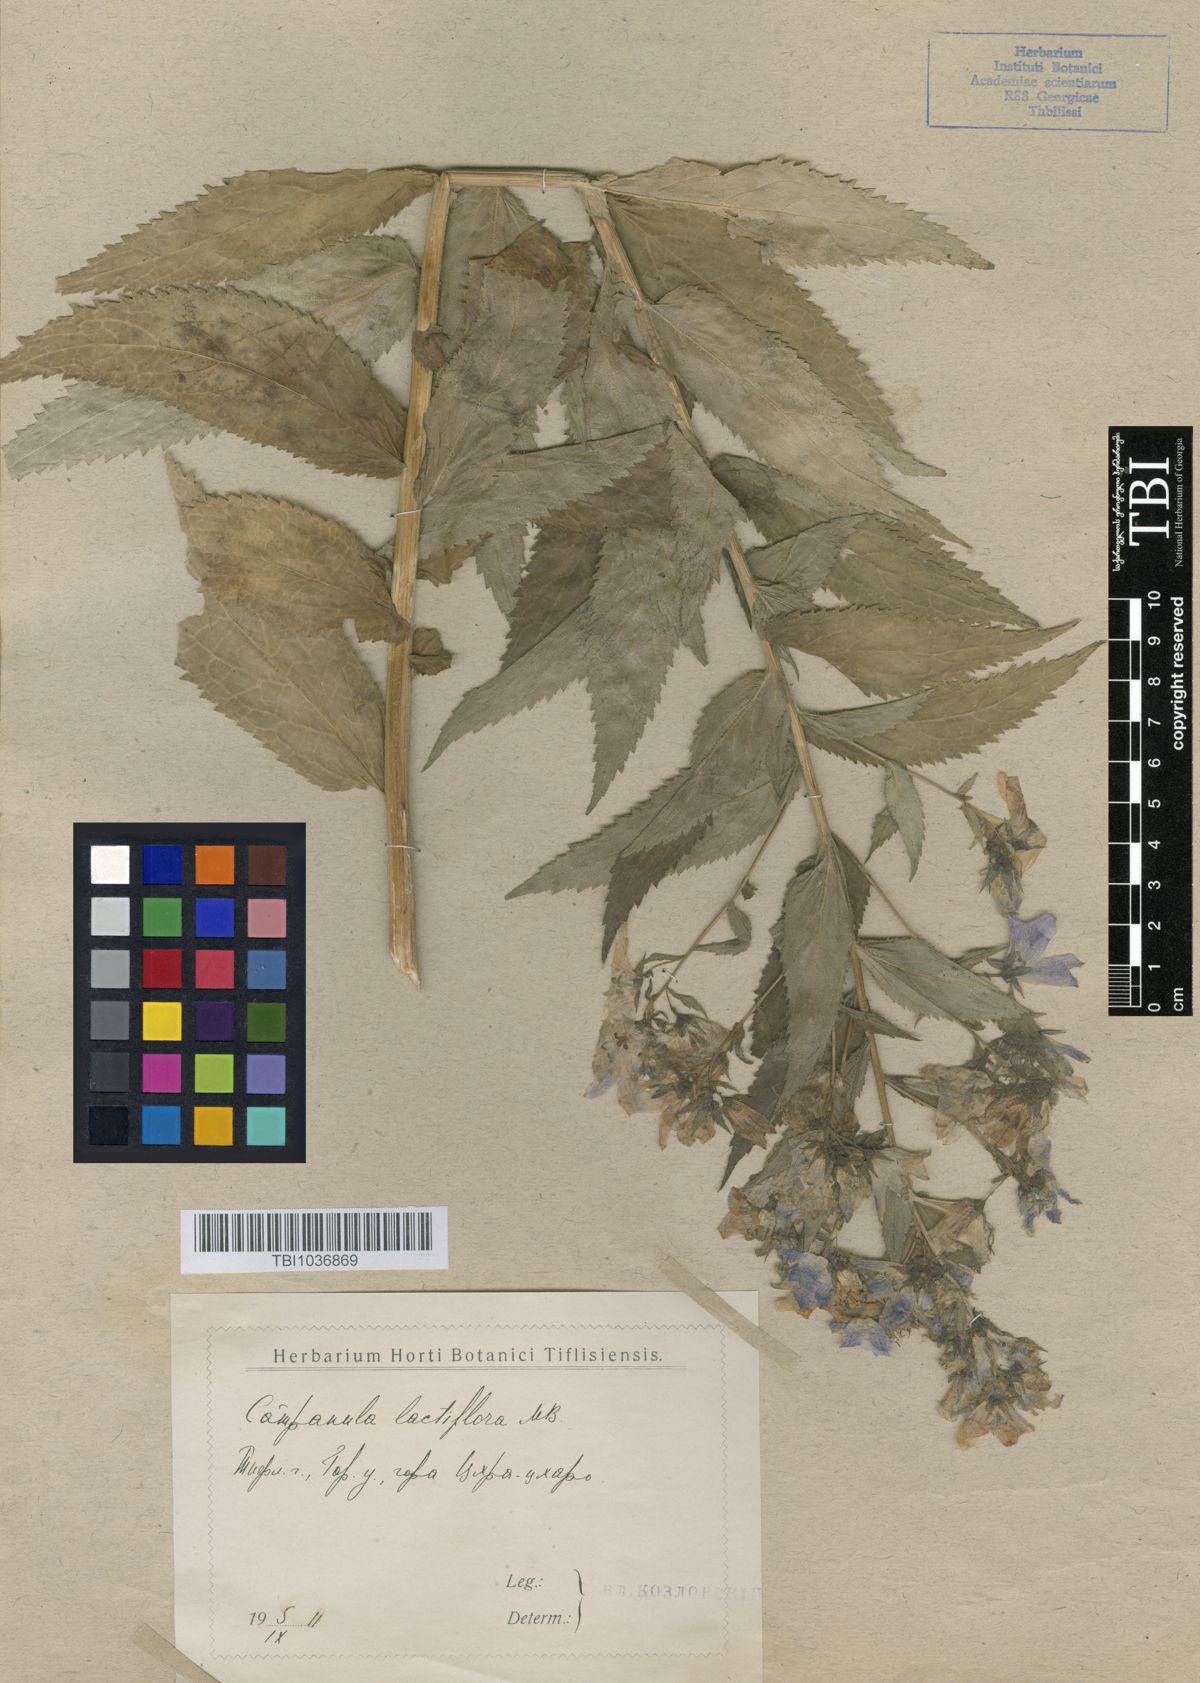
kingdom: Plantae
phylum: Tracheophyta
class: Magnoliopsida
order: Asterales
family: Campanulaceae
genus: Campanula
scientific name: Campanula lactiflora
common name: Milky bellflower
